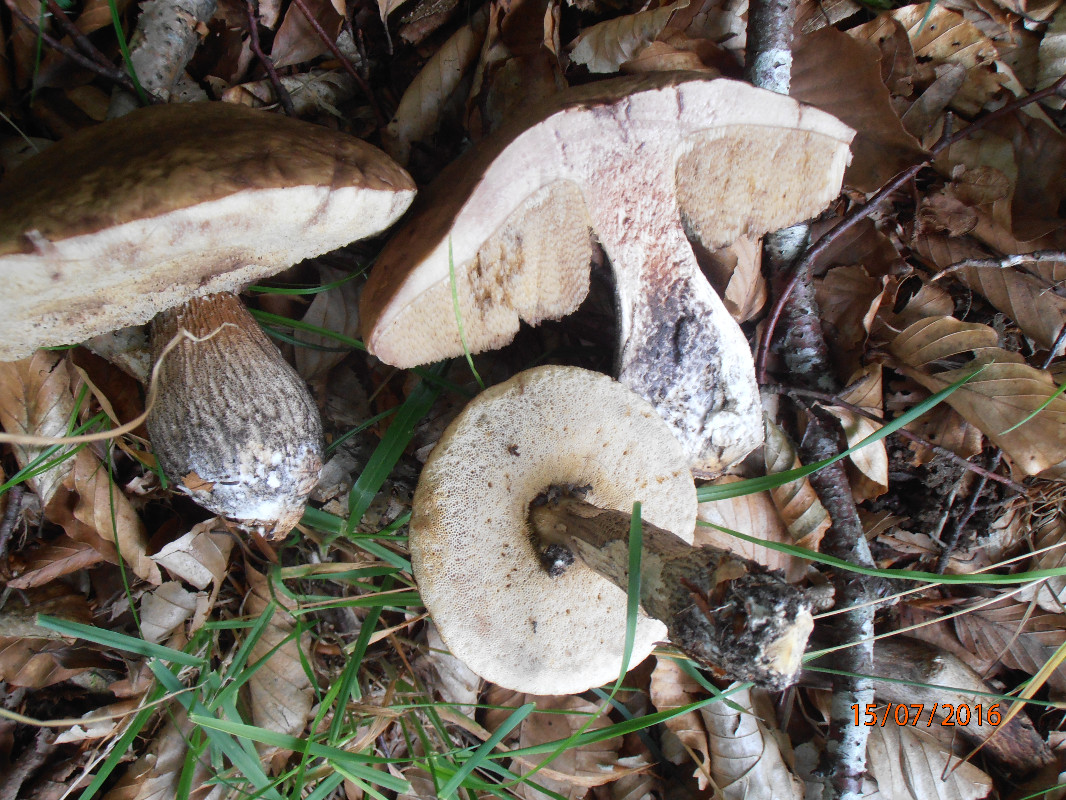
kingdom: Fungi
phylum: Basidiomycota
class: Agaricomycetes
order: Boletales
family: Boletaceae
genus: Leccinellum
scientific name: Leccinellum pseudoscabrum
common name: avnbøg-skælrørhat
